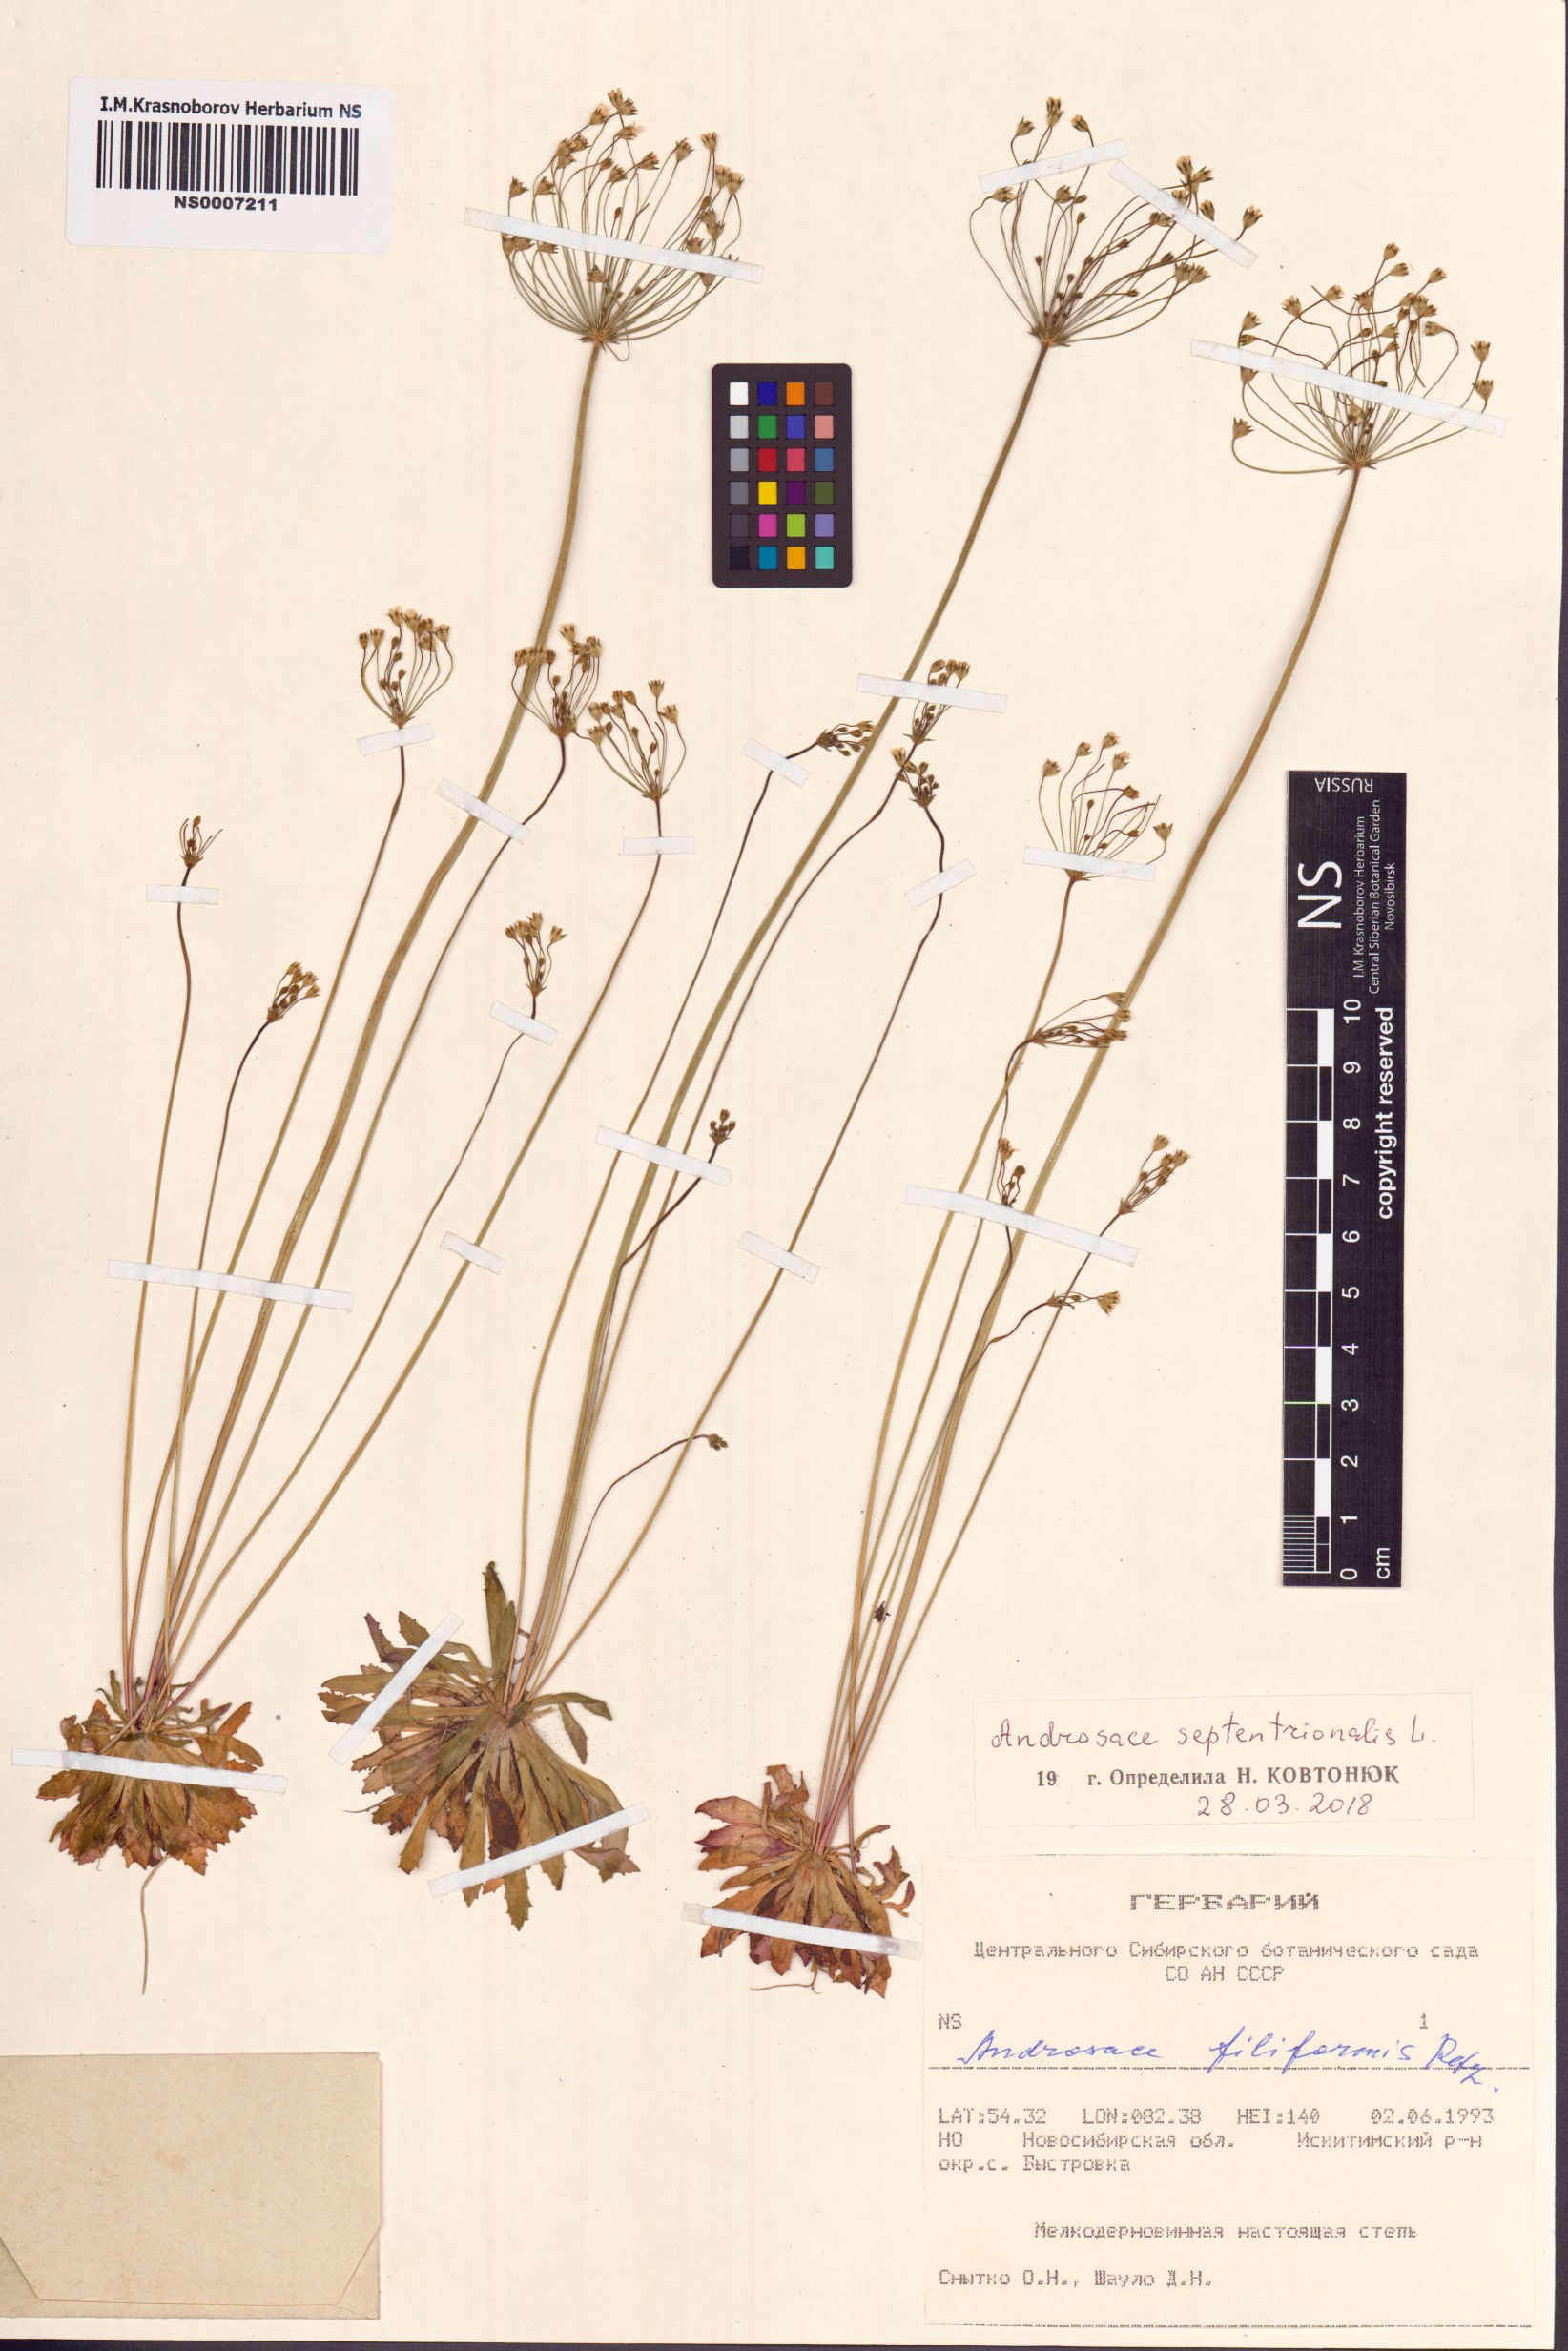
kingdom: Plantae
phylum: Tracheophyta
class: Magnoliopsida
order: Ericales
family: Primulaceae
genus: Androsace
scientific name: Androsace septentrionalis
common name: Hairy northern fairy-candelabra
